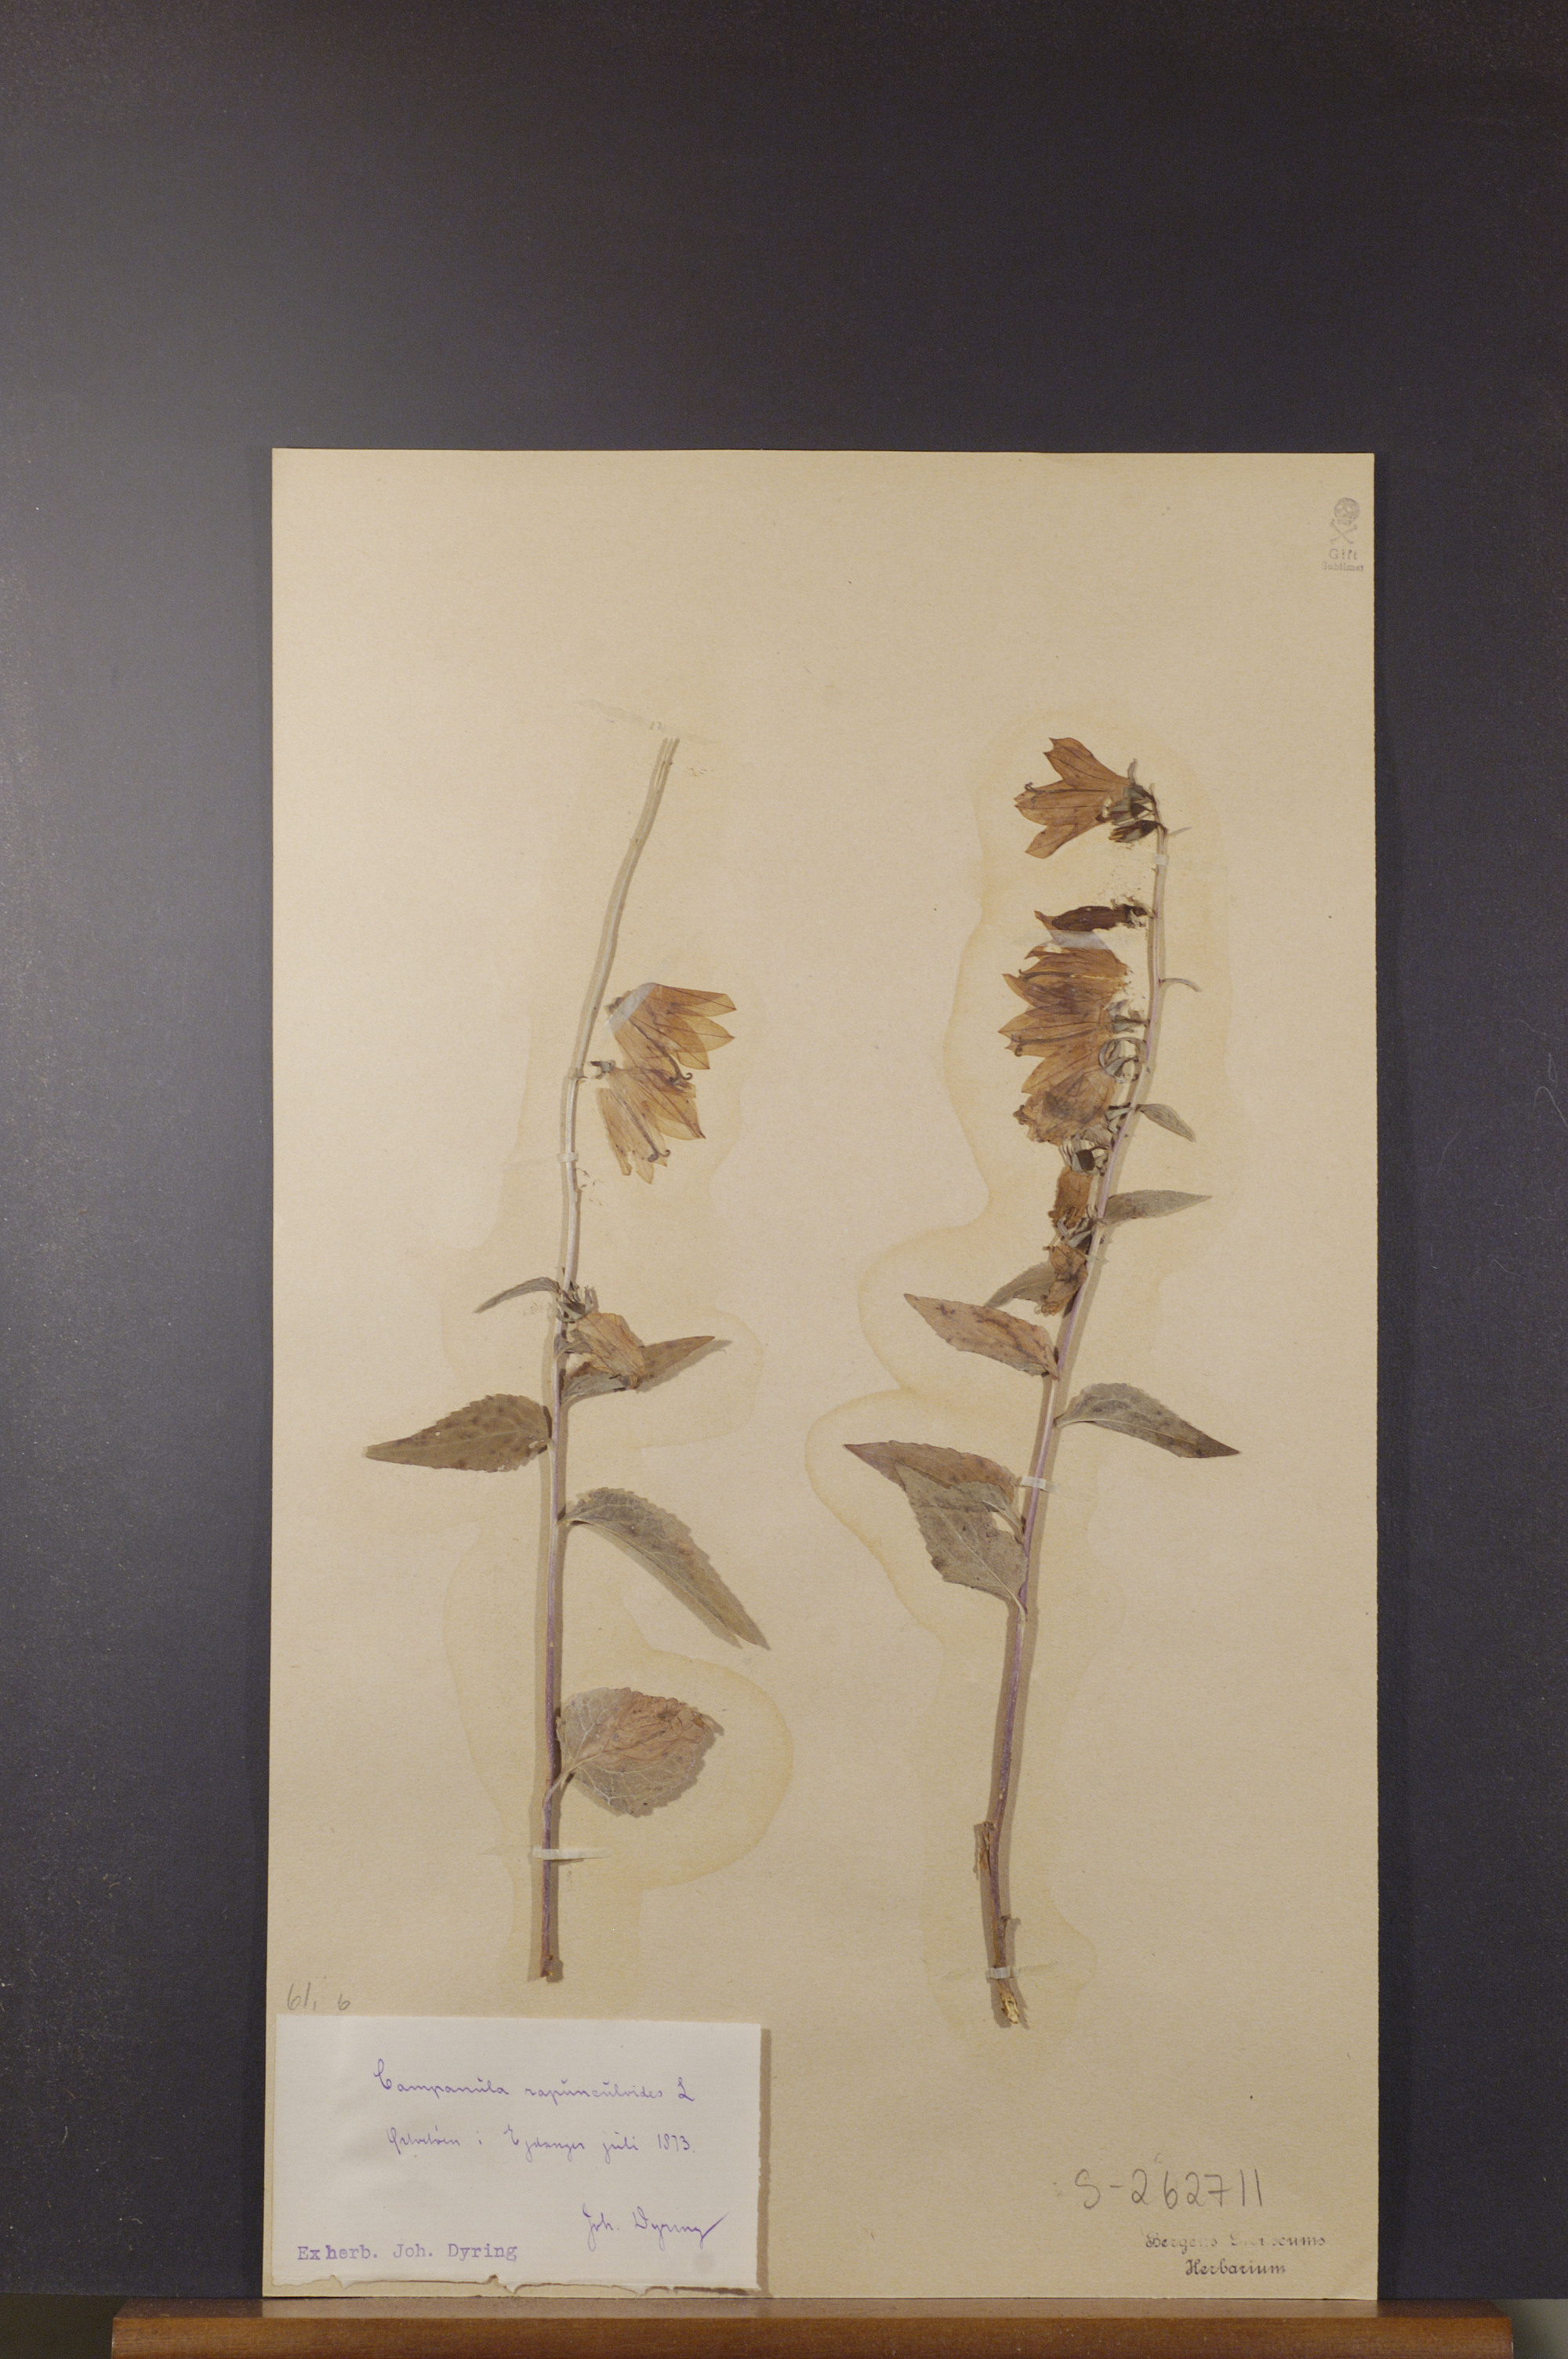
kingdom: Plantae
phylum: Tracheophyta
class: Magnoliopsida
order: Asterales
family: Campanulaceae
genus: Campanula
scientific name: Campanula rapunculoides
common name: Creeping bellflower
